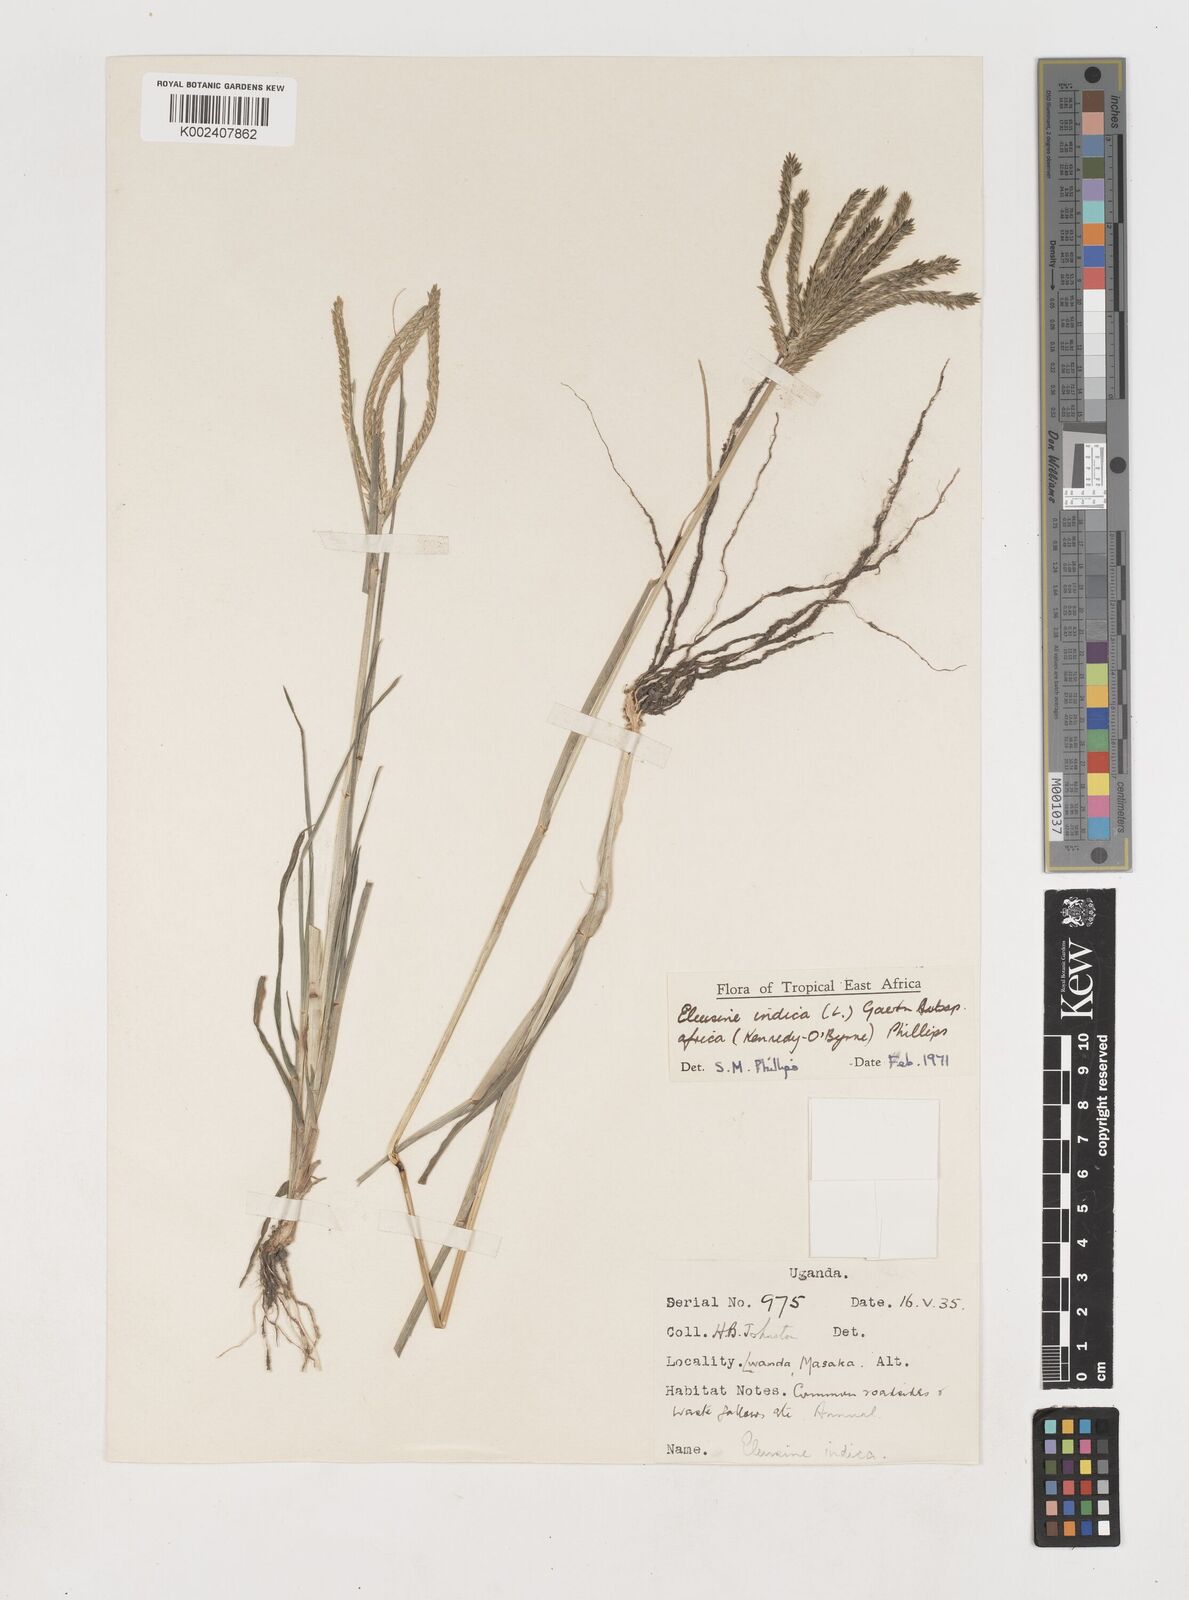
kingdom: Plantae
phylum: Tracheophyta
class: Liliopsida
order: Poales
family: Poaceae
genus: Eleusine
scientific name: Eleusine africana
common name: Wild african finger millet
